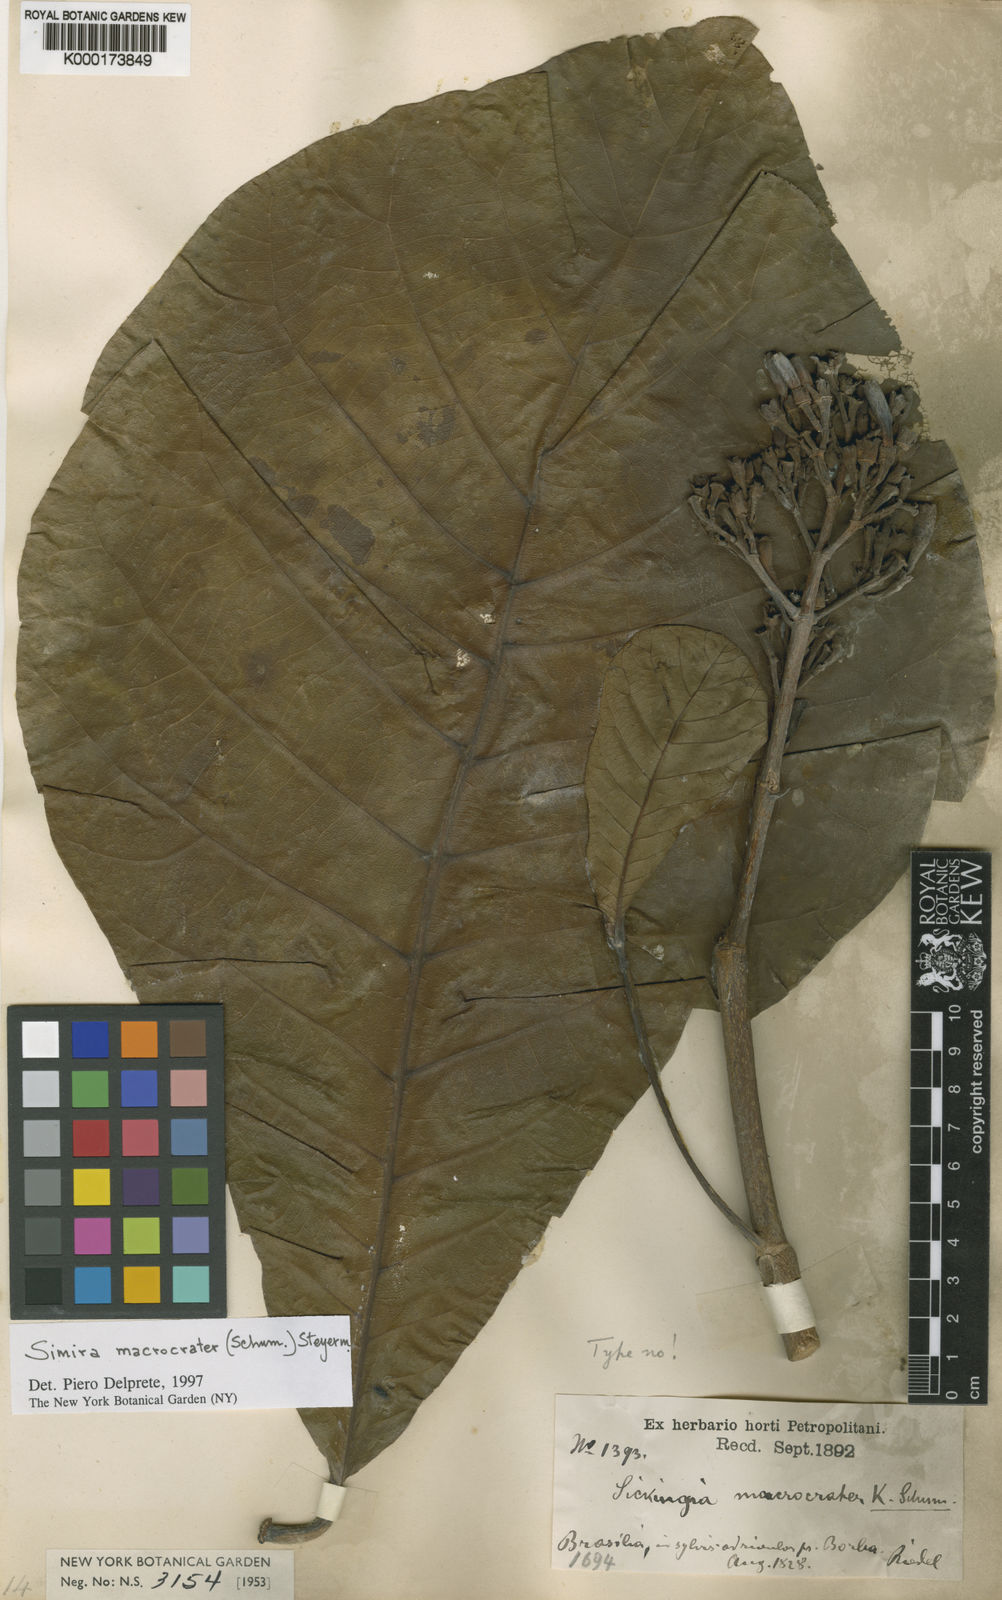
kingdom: Plantae
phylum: Tracheophyta
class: Magnoliopsida
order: Gentianales
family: Rubiaceae
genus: Simira
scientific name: Simira macrocrater
